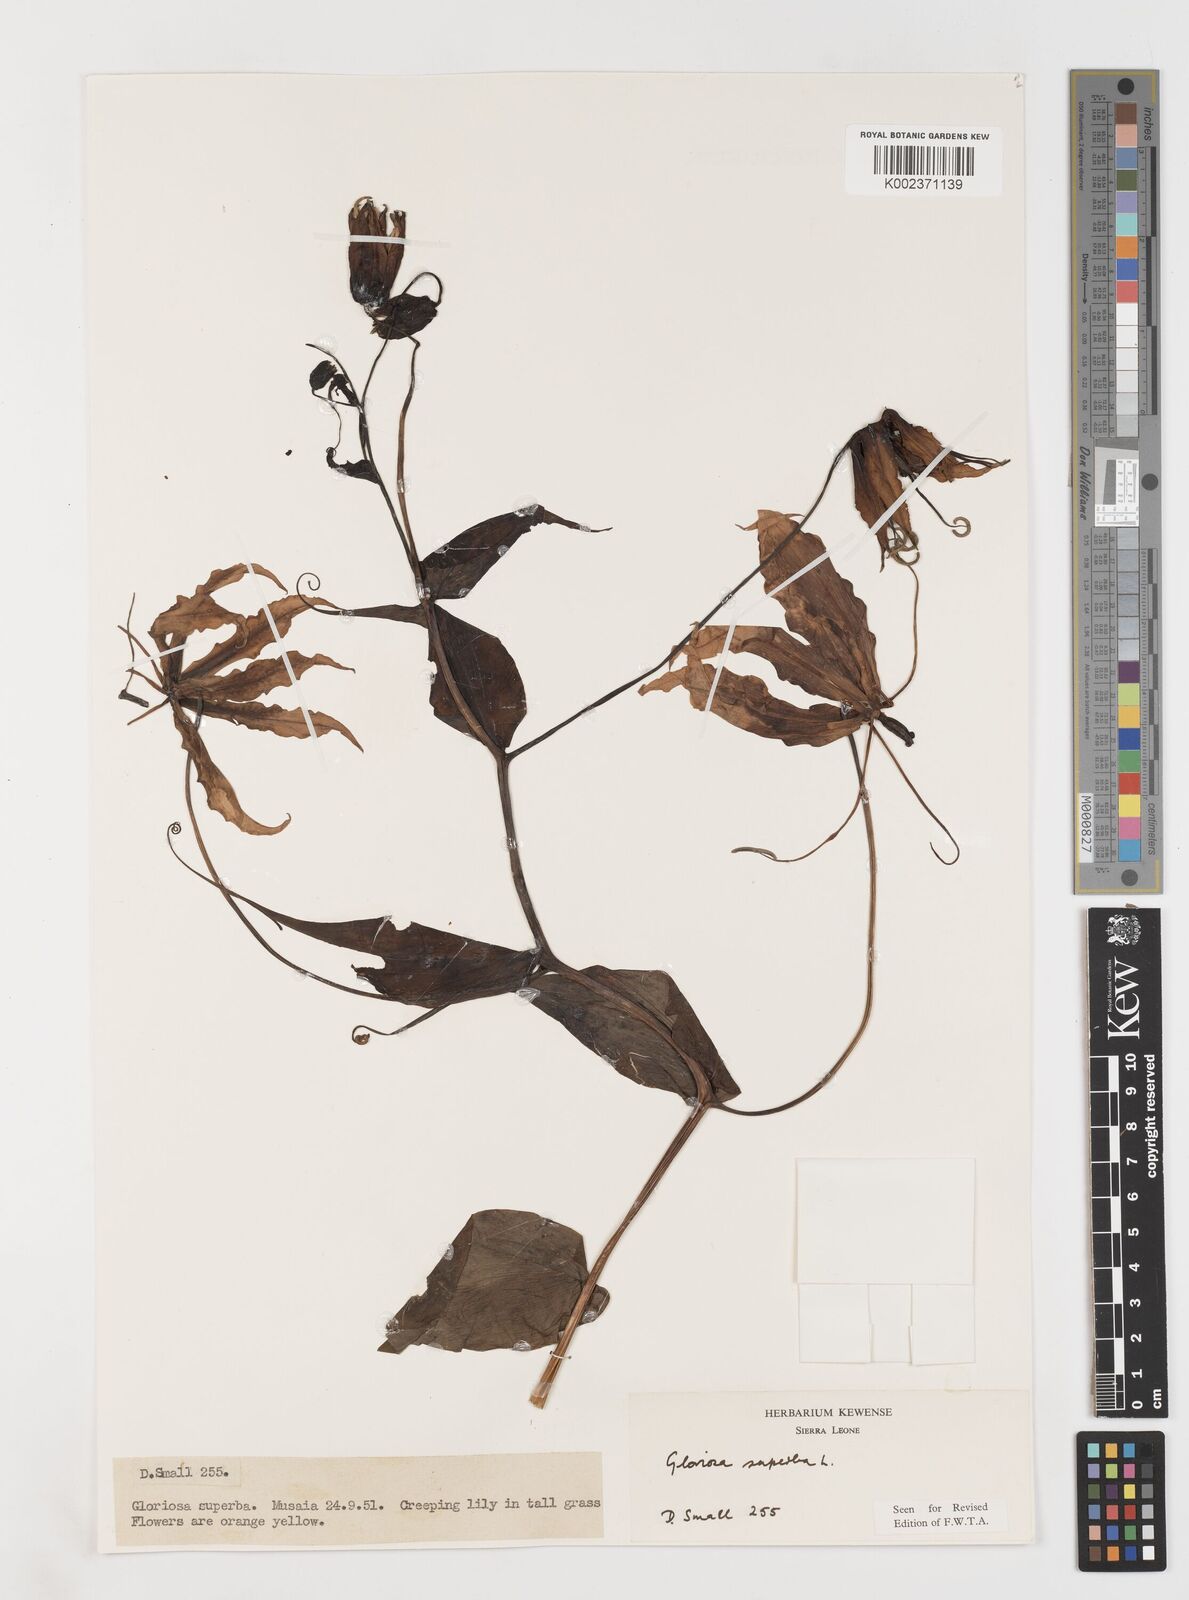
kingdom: Plantae
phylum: Tracheophyta
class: Liliopsida
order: Liliales
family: Colchicaceae
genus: Gloriosa
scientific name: Gloriosa simplex
